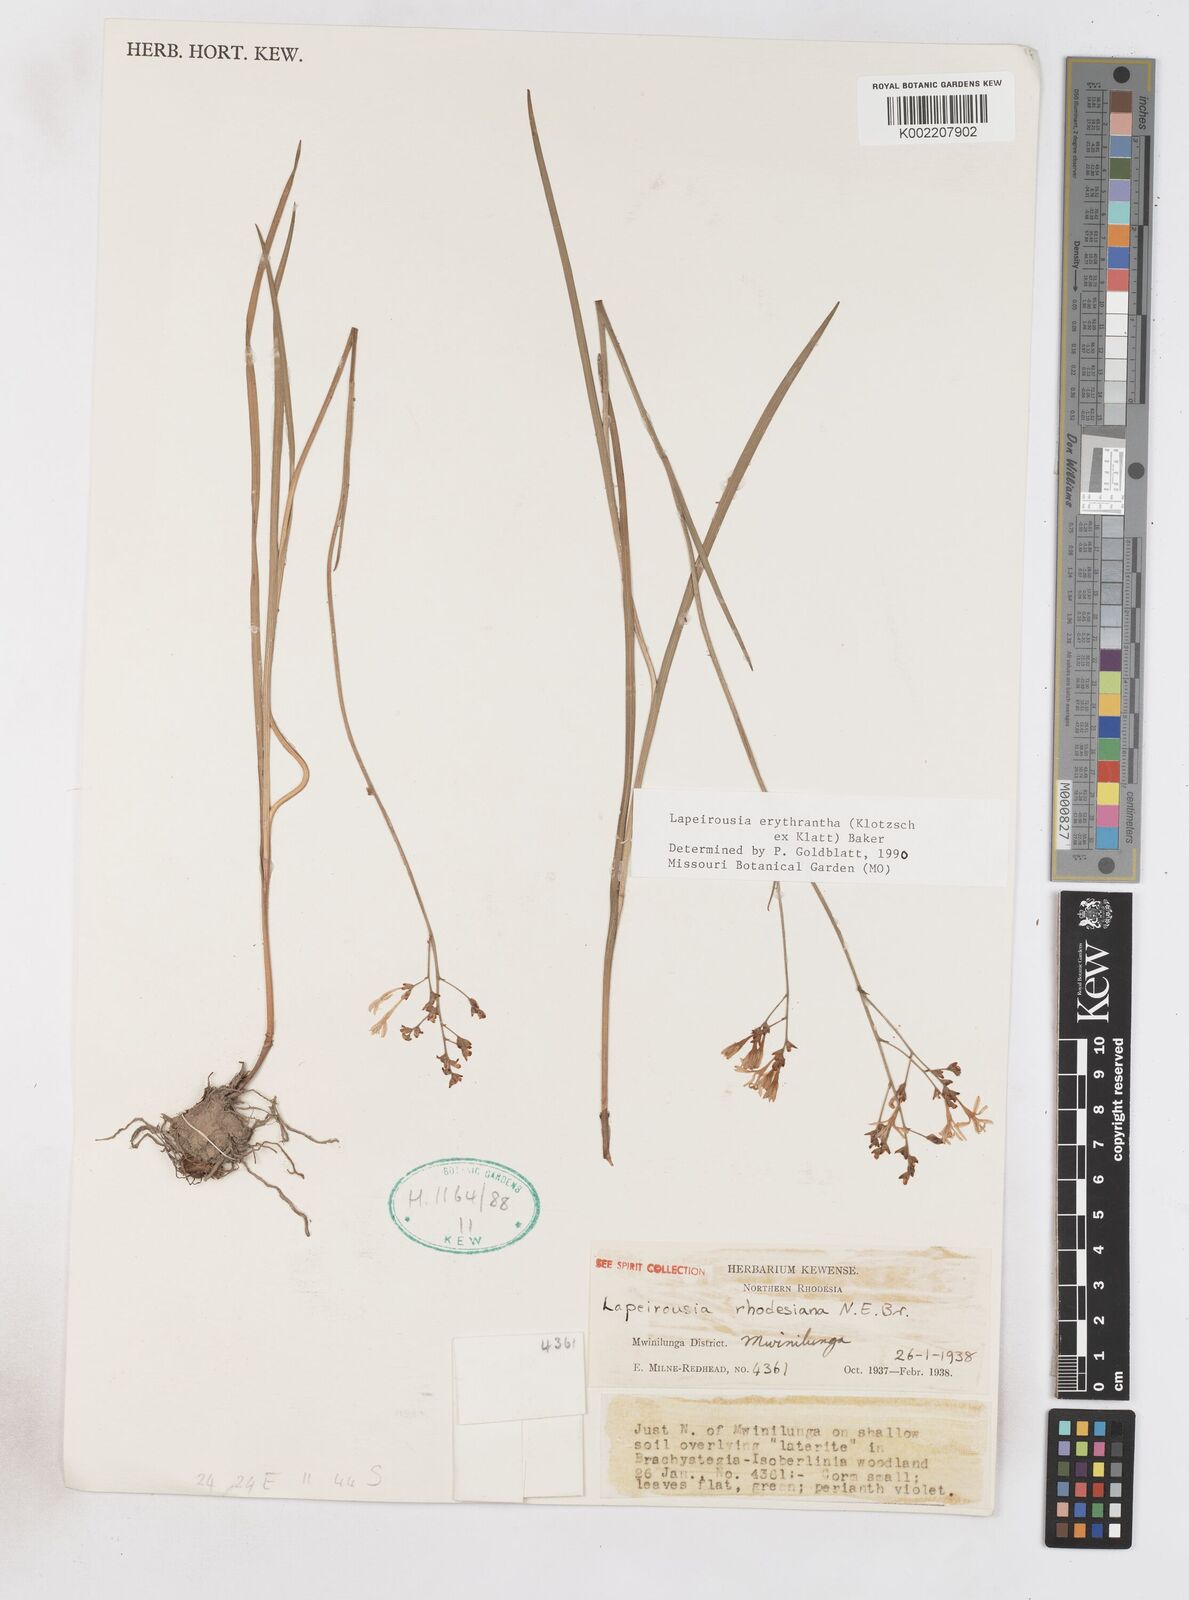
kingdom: Plantae
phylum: Tracheophyta
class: Liliopsida
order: Asparagales
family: Iridaceae
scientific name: Iridaceae
